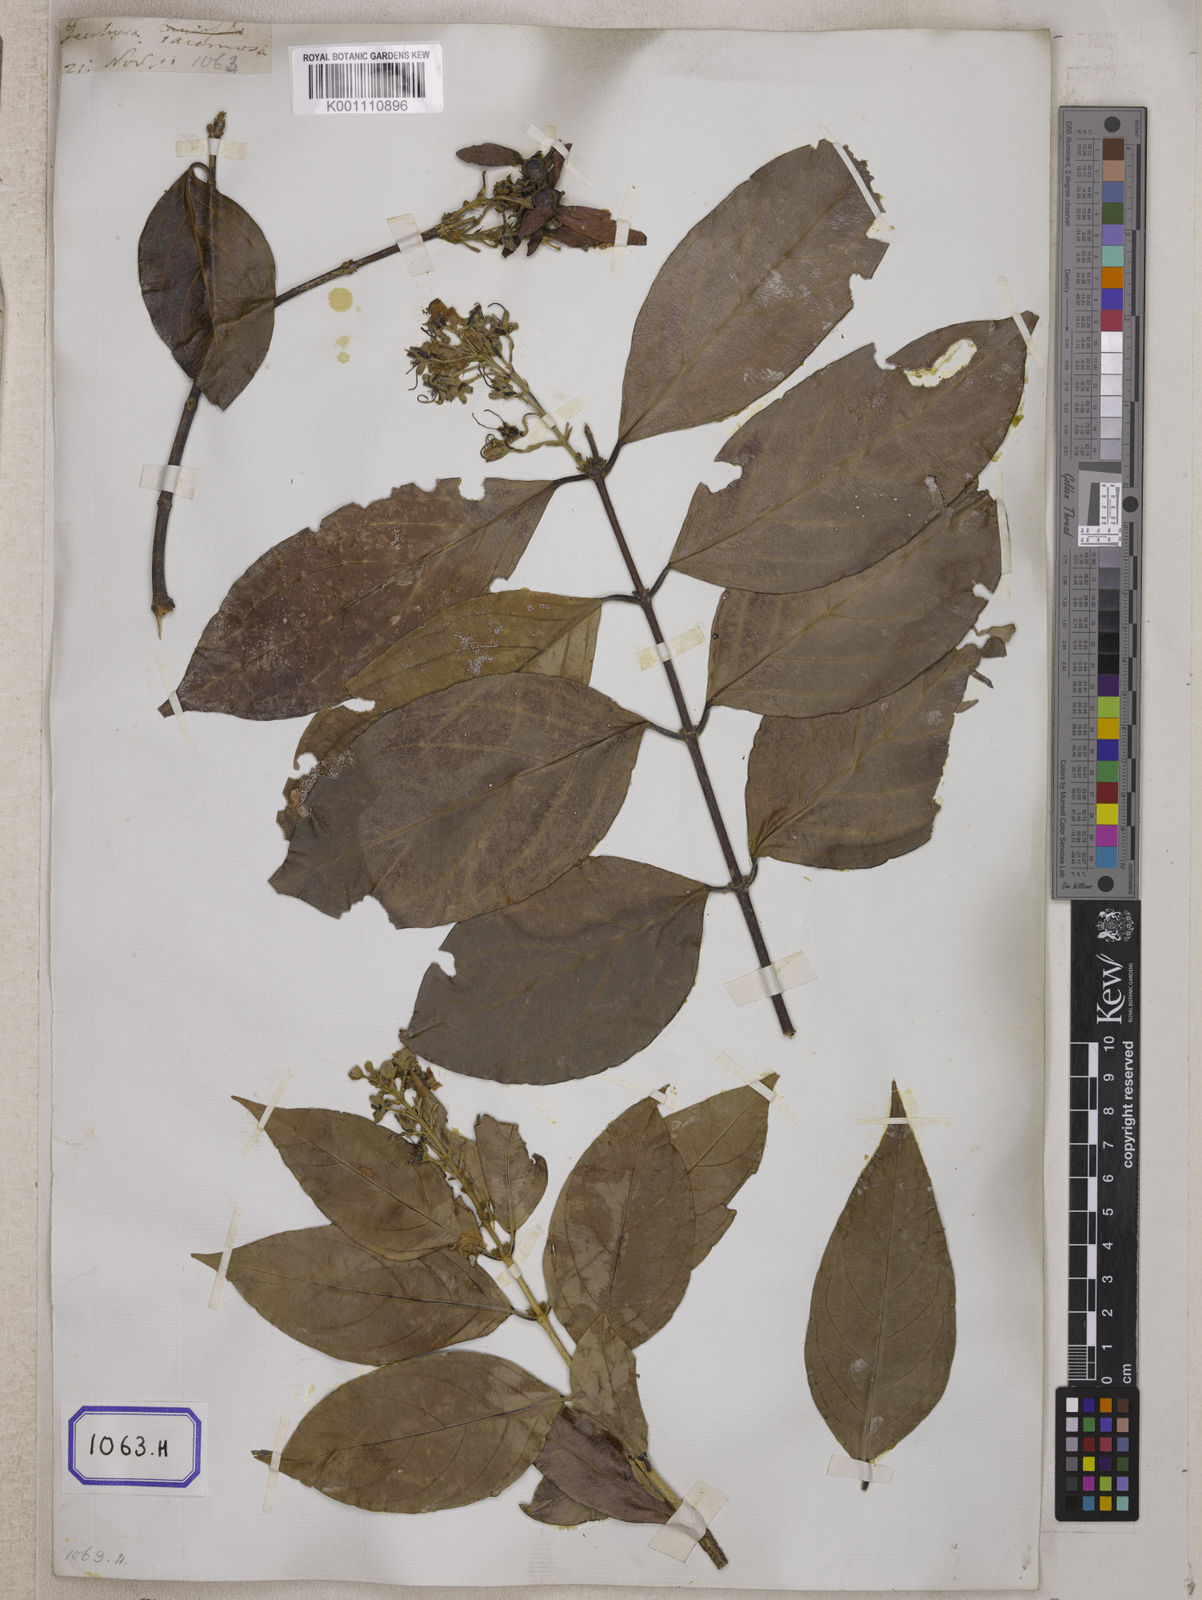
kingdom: Plantae
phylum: Tracheophyta
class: Magnoliopsida
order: Malpighiales
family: Malpighiaceae
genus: Hiptage
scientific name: Hiptage benghalensis
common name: Hiptage
